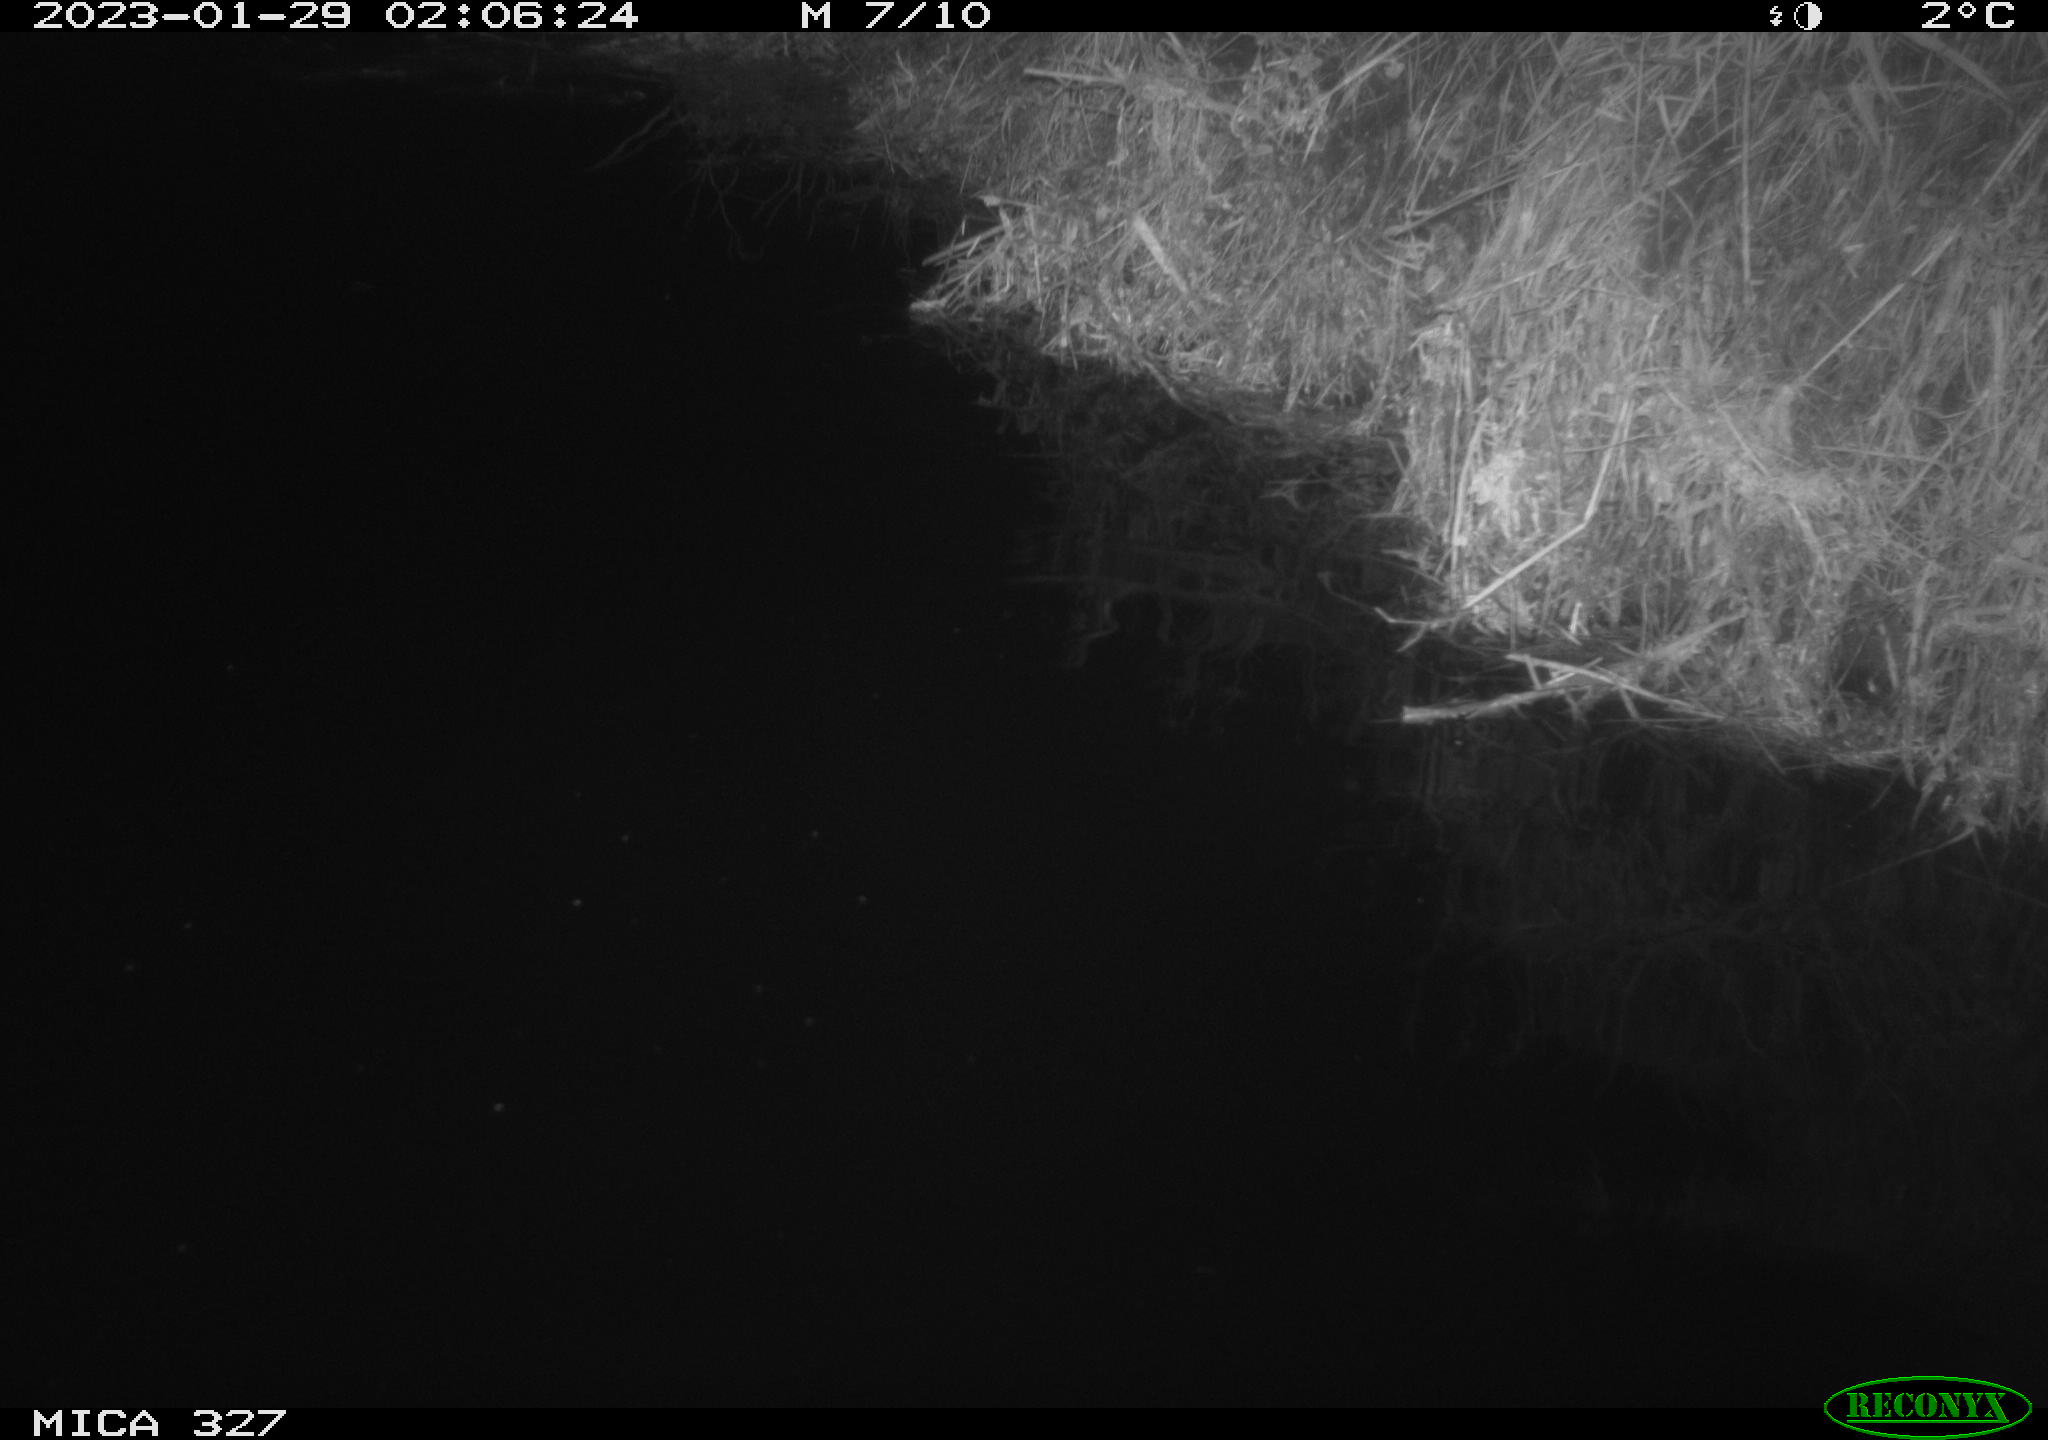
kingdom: Animalia
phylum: Chordata
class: Mammalia
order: Rodentia
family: Cricetidae
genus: Ondatra
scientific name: Ondatra zibethicus
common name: Muskrat
